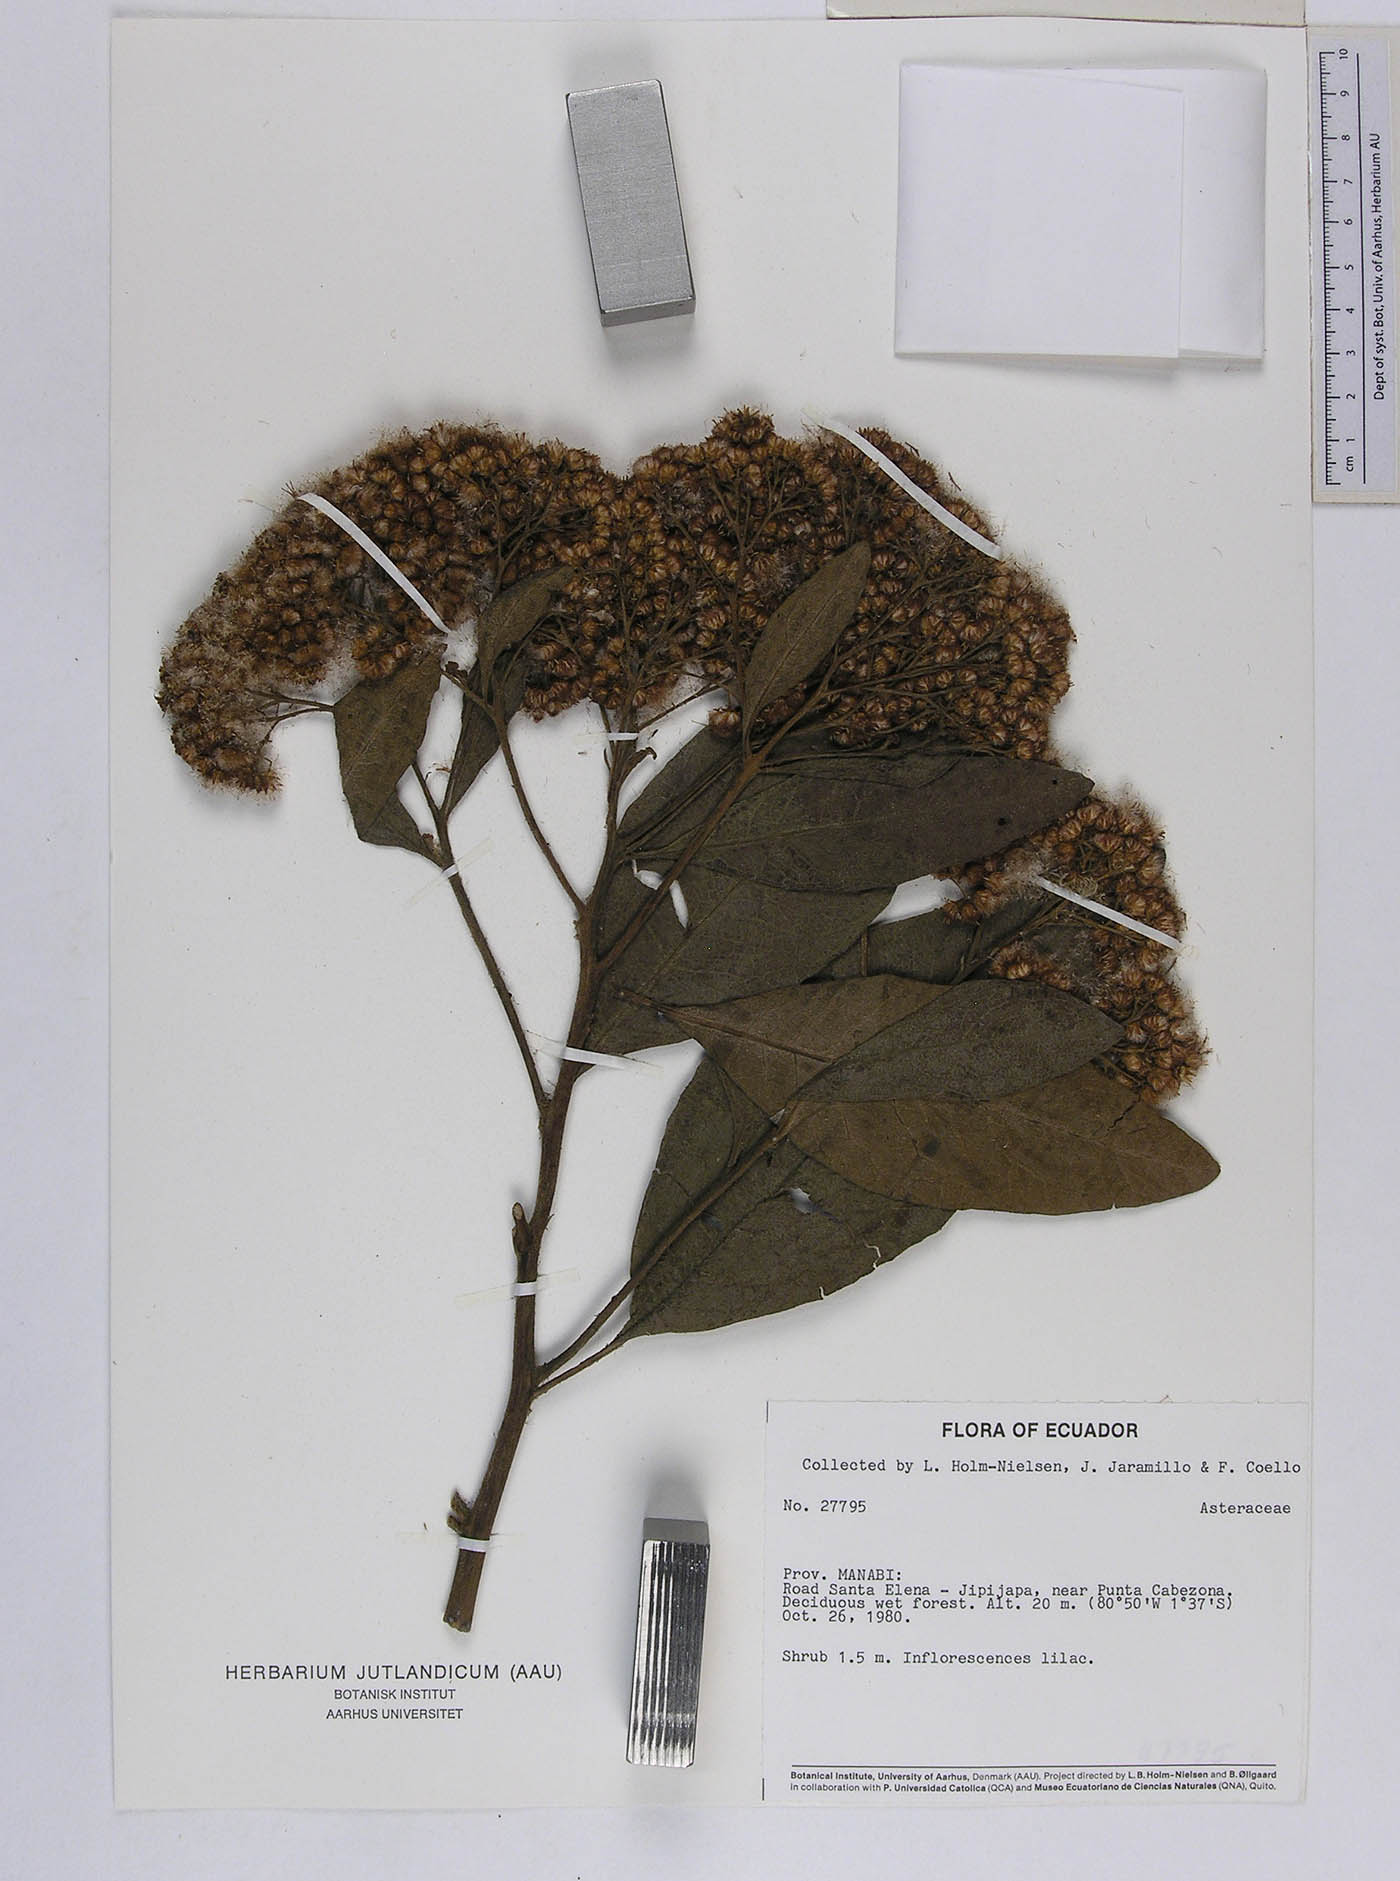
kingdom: Plantae
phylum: Tracheophyta
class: Magnoliopsida
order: Asterales
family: Asteraceae
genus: Pluchea
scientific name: Pluchea carolinensis
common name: Marsh fleabane
